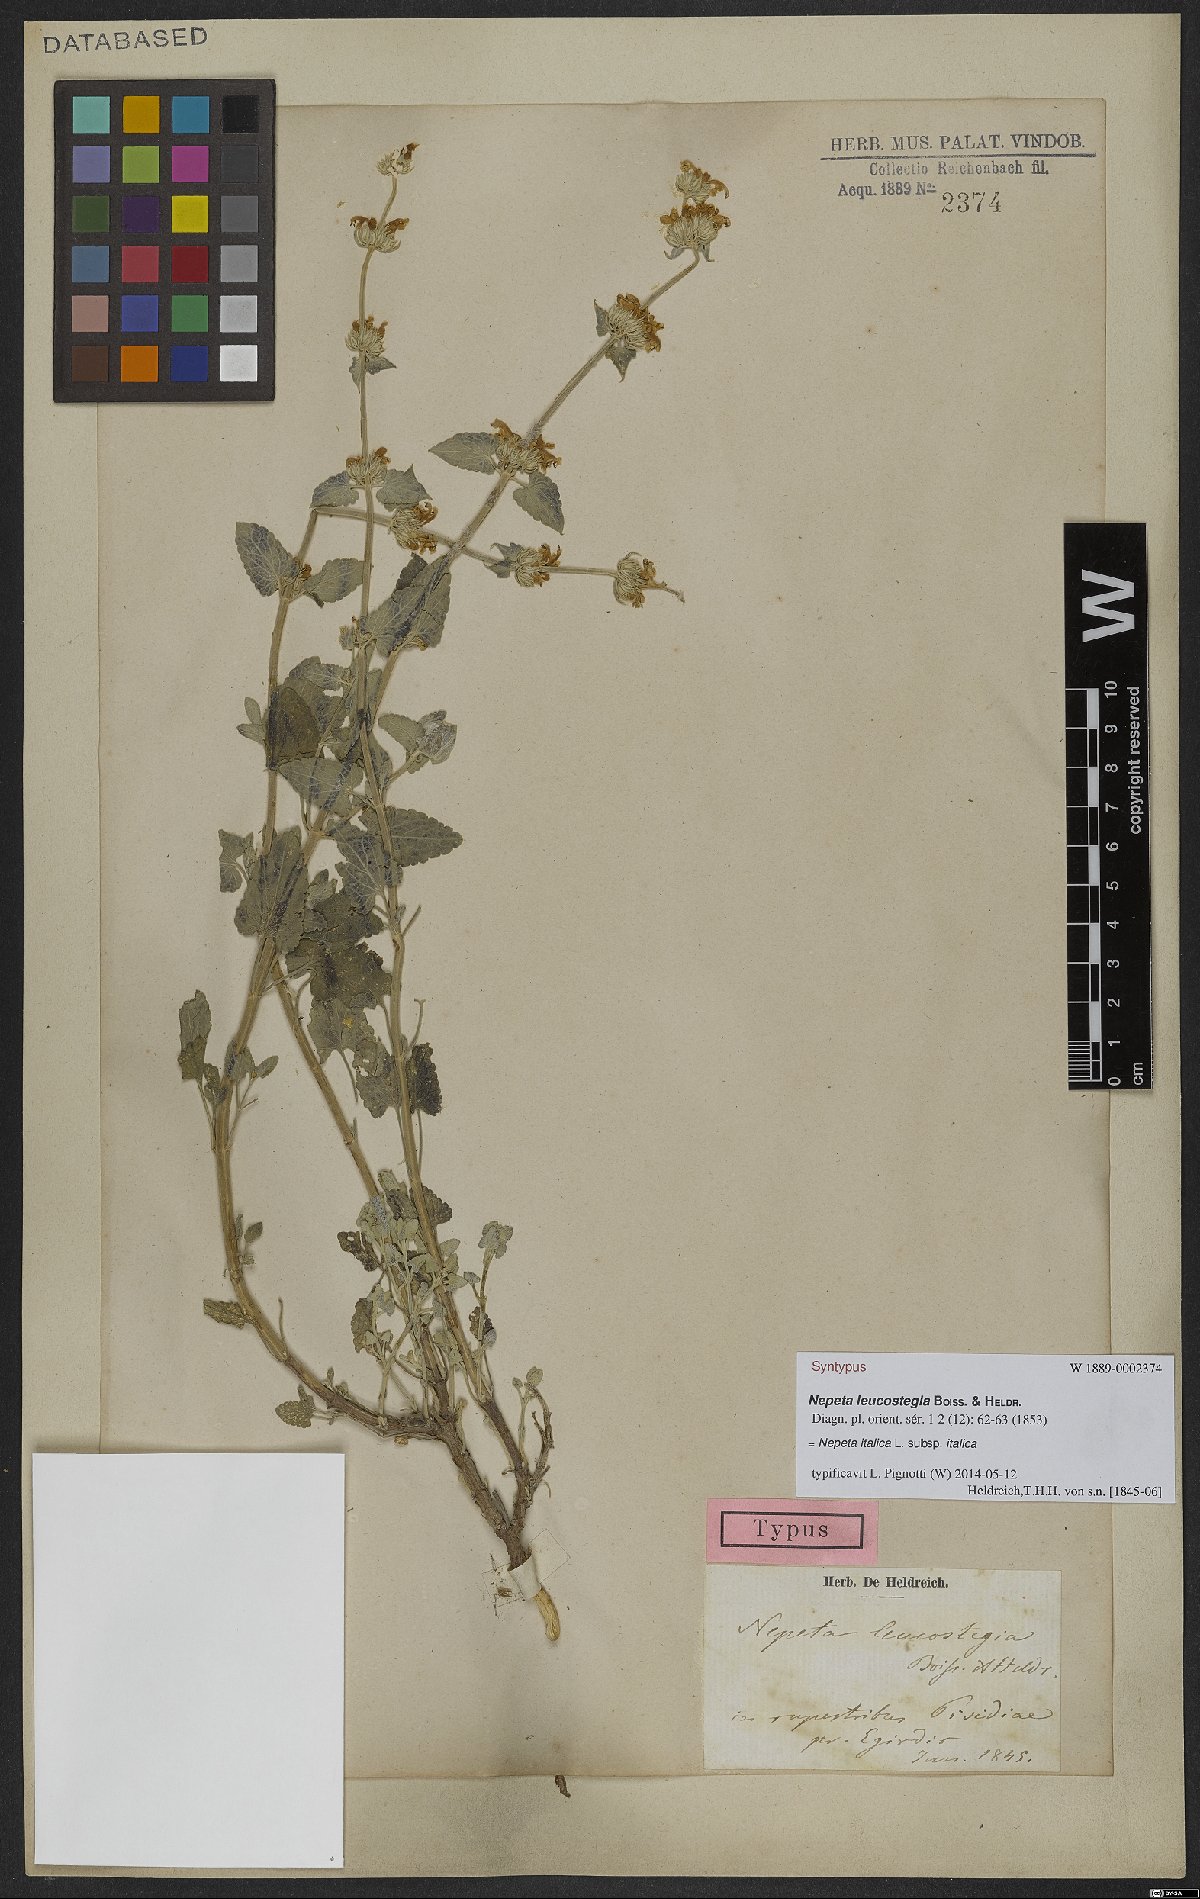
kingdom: Plantae
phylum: Tracheophyta
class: Magnoliopsida
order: Lamiales
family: Lamiaceae
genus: Nepeta
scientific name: Nepeta italica
